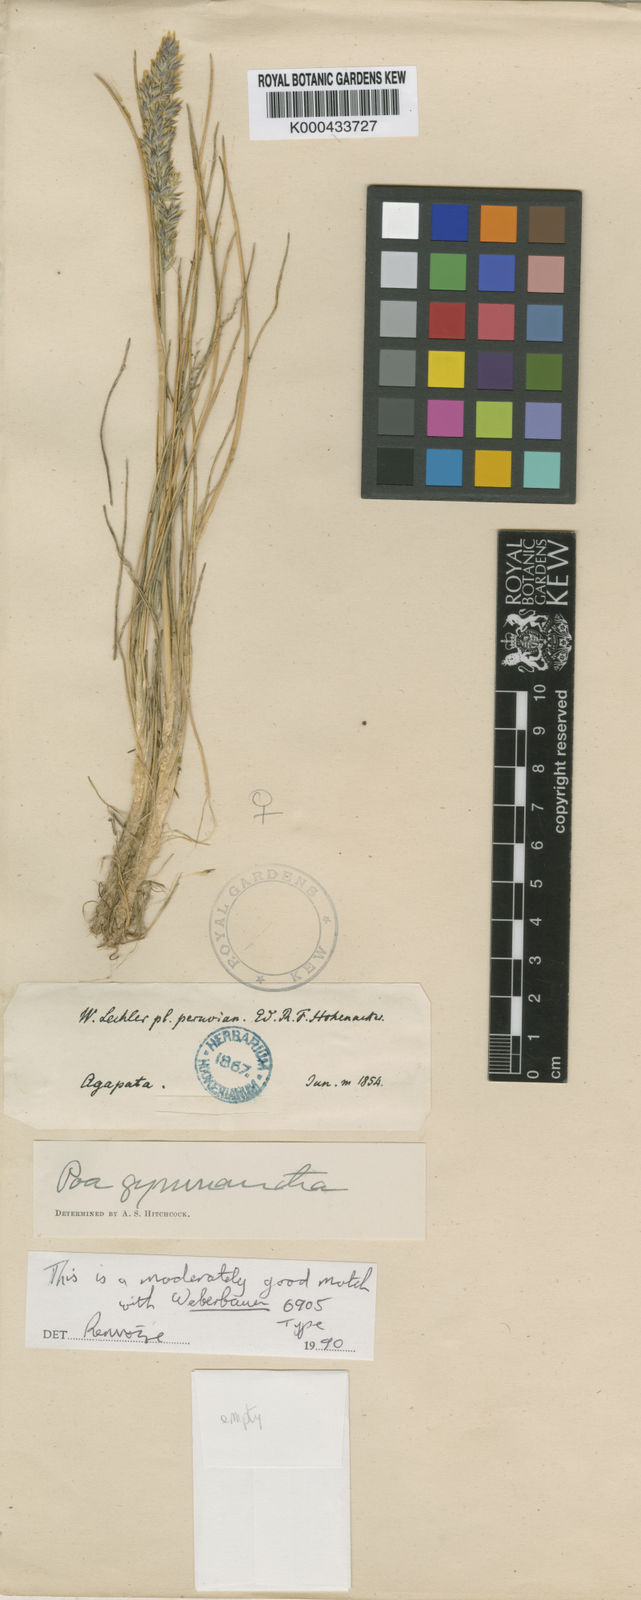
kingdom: Plantae
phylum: Tracheophyta
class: Liliopsida
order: Poales
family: Poaceae
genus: Poa
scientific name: Poa gymnantha
